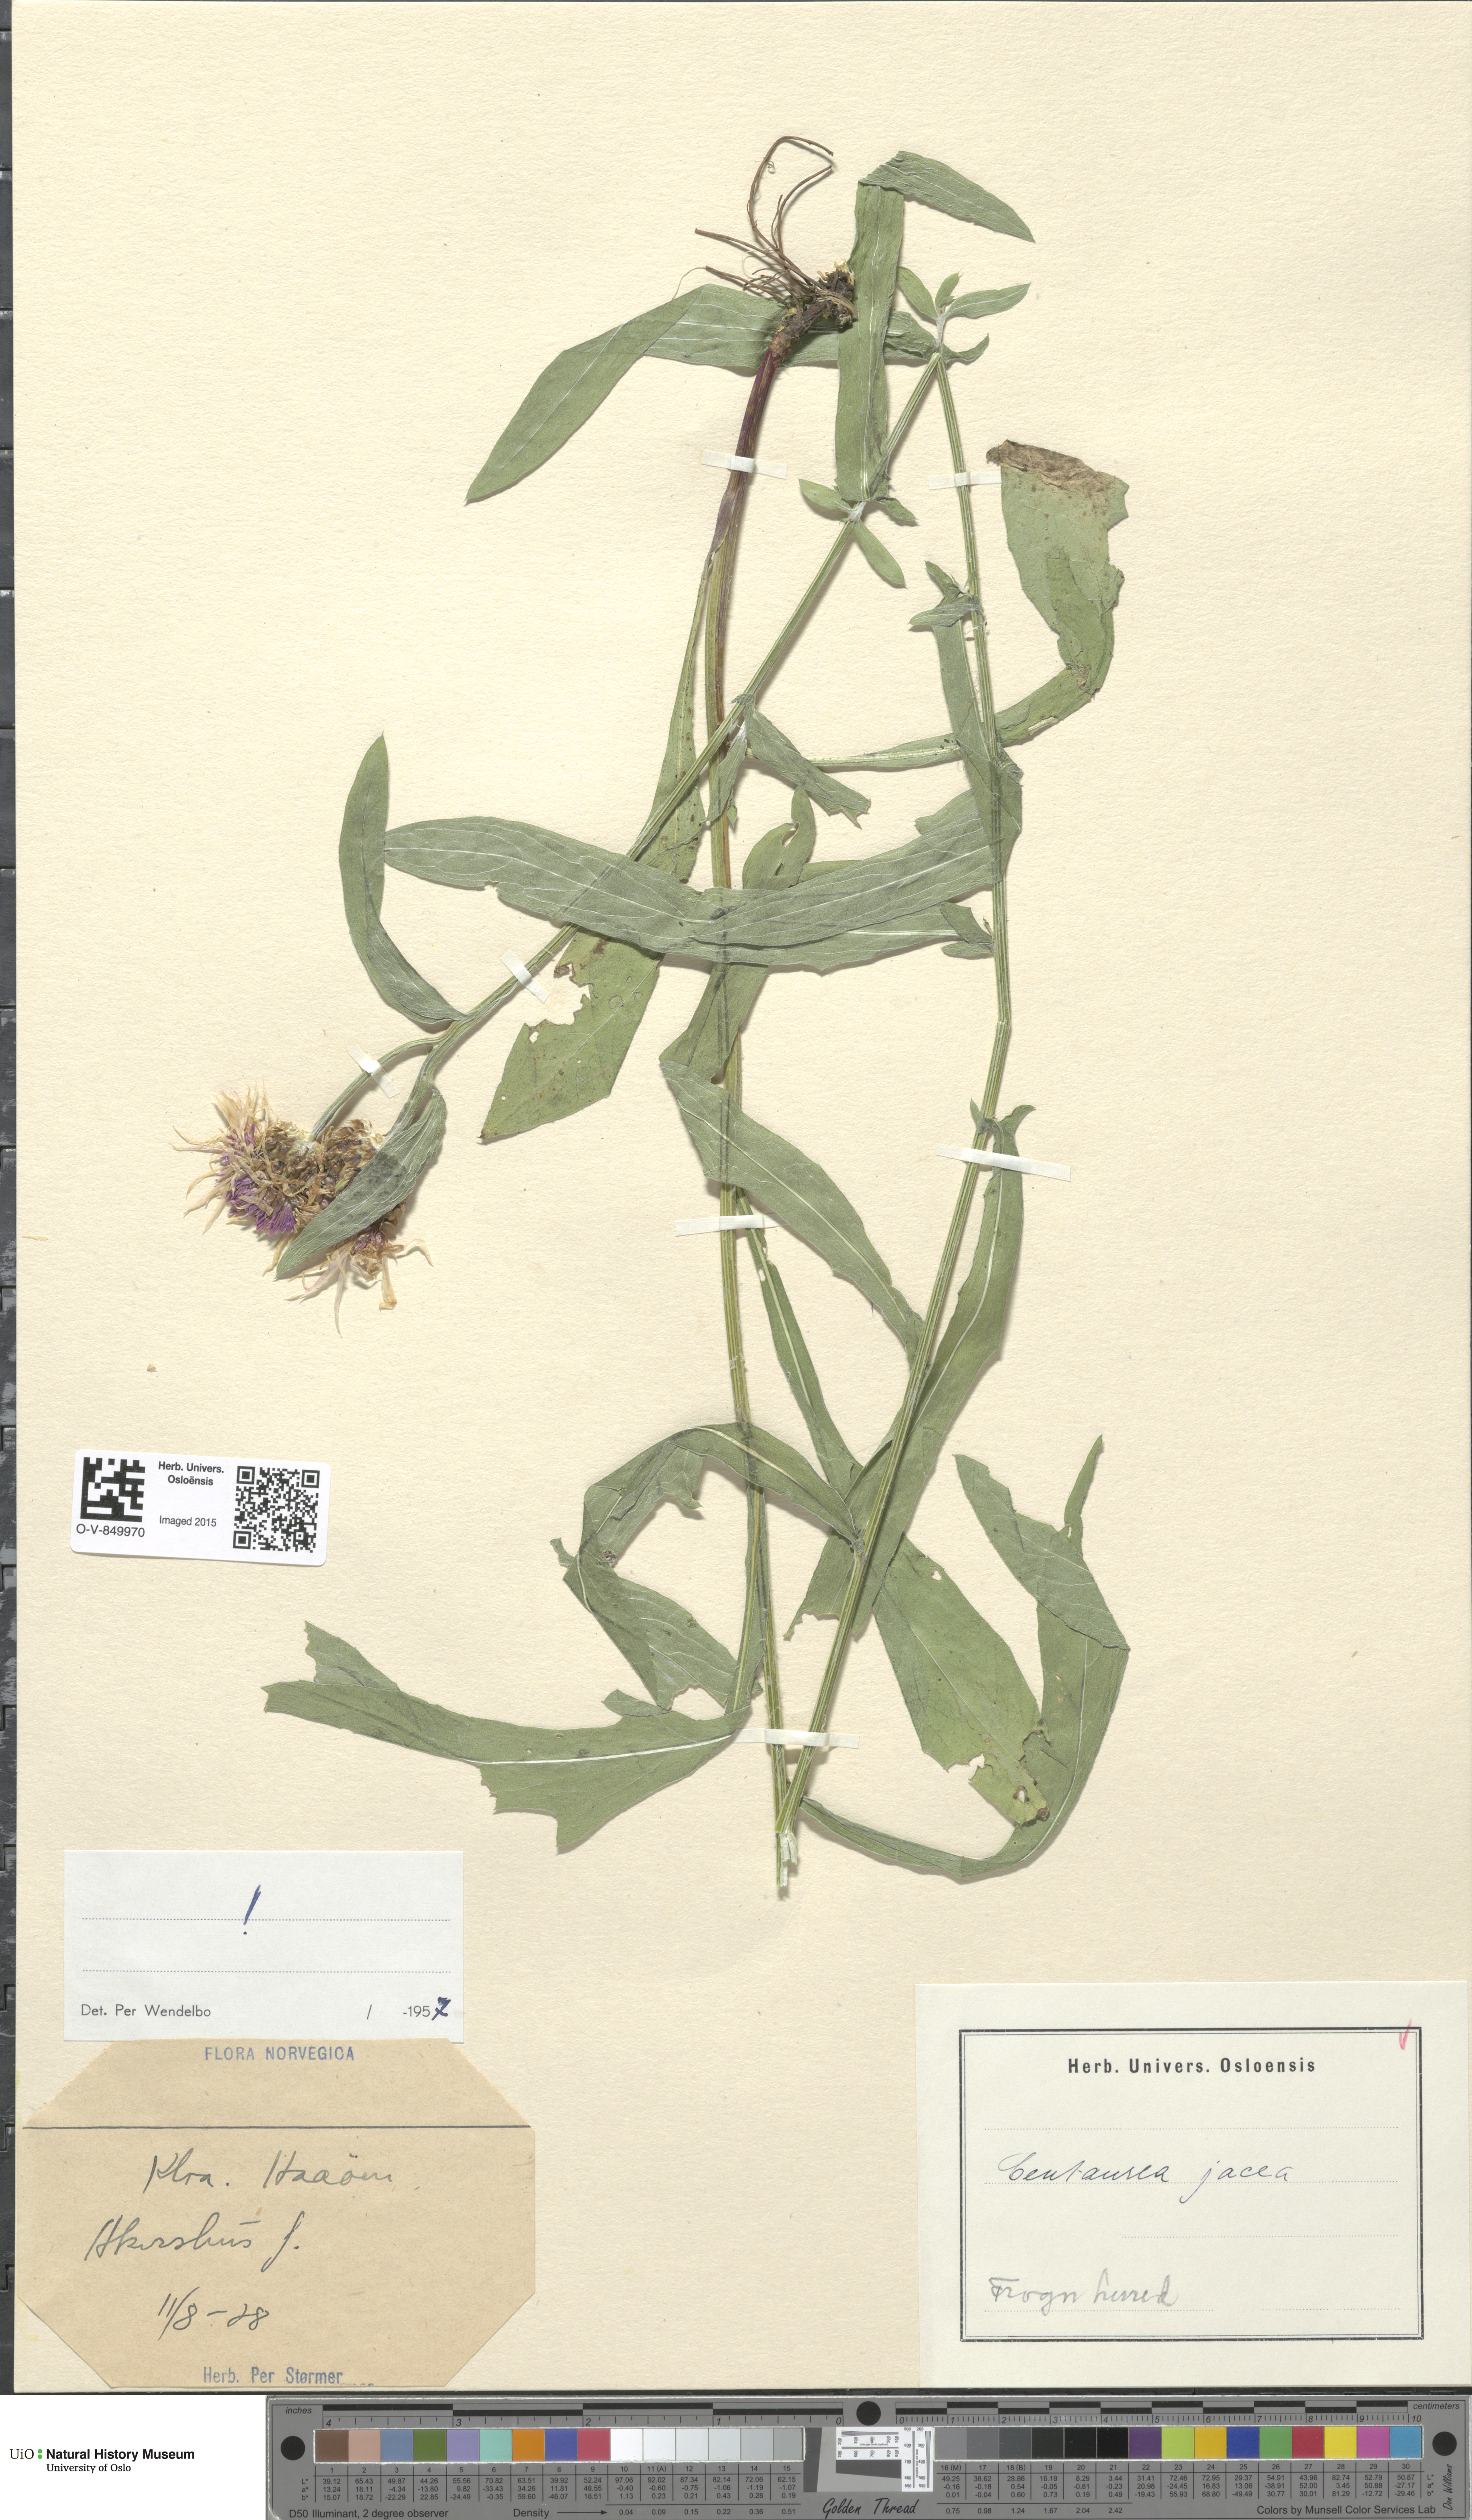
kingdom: Plantae
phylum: Tracheophyta
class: Magnoliopsida
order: Asterales
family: Asteraceae
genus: Centaurea
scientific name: Centaurea jacea
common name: Brown knapweed
